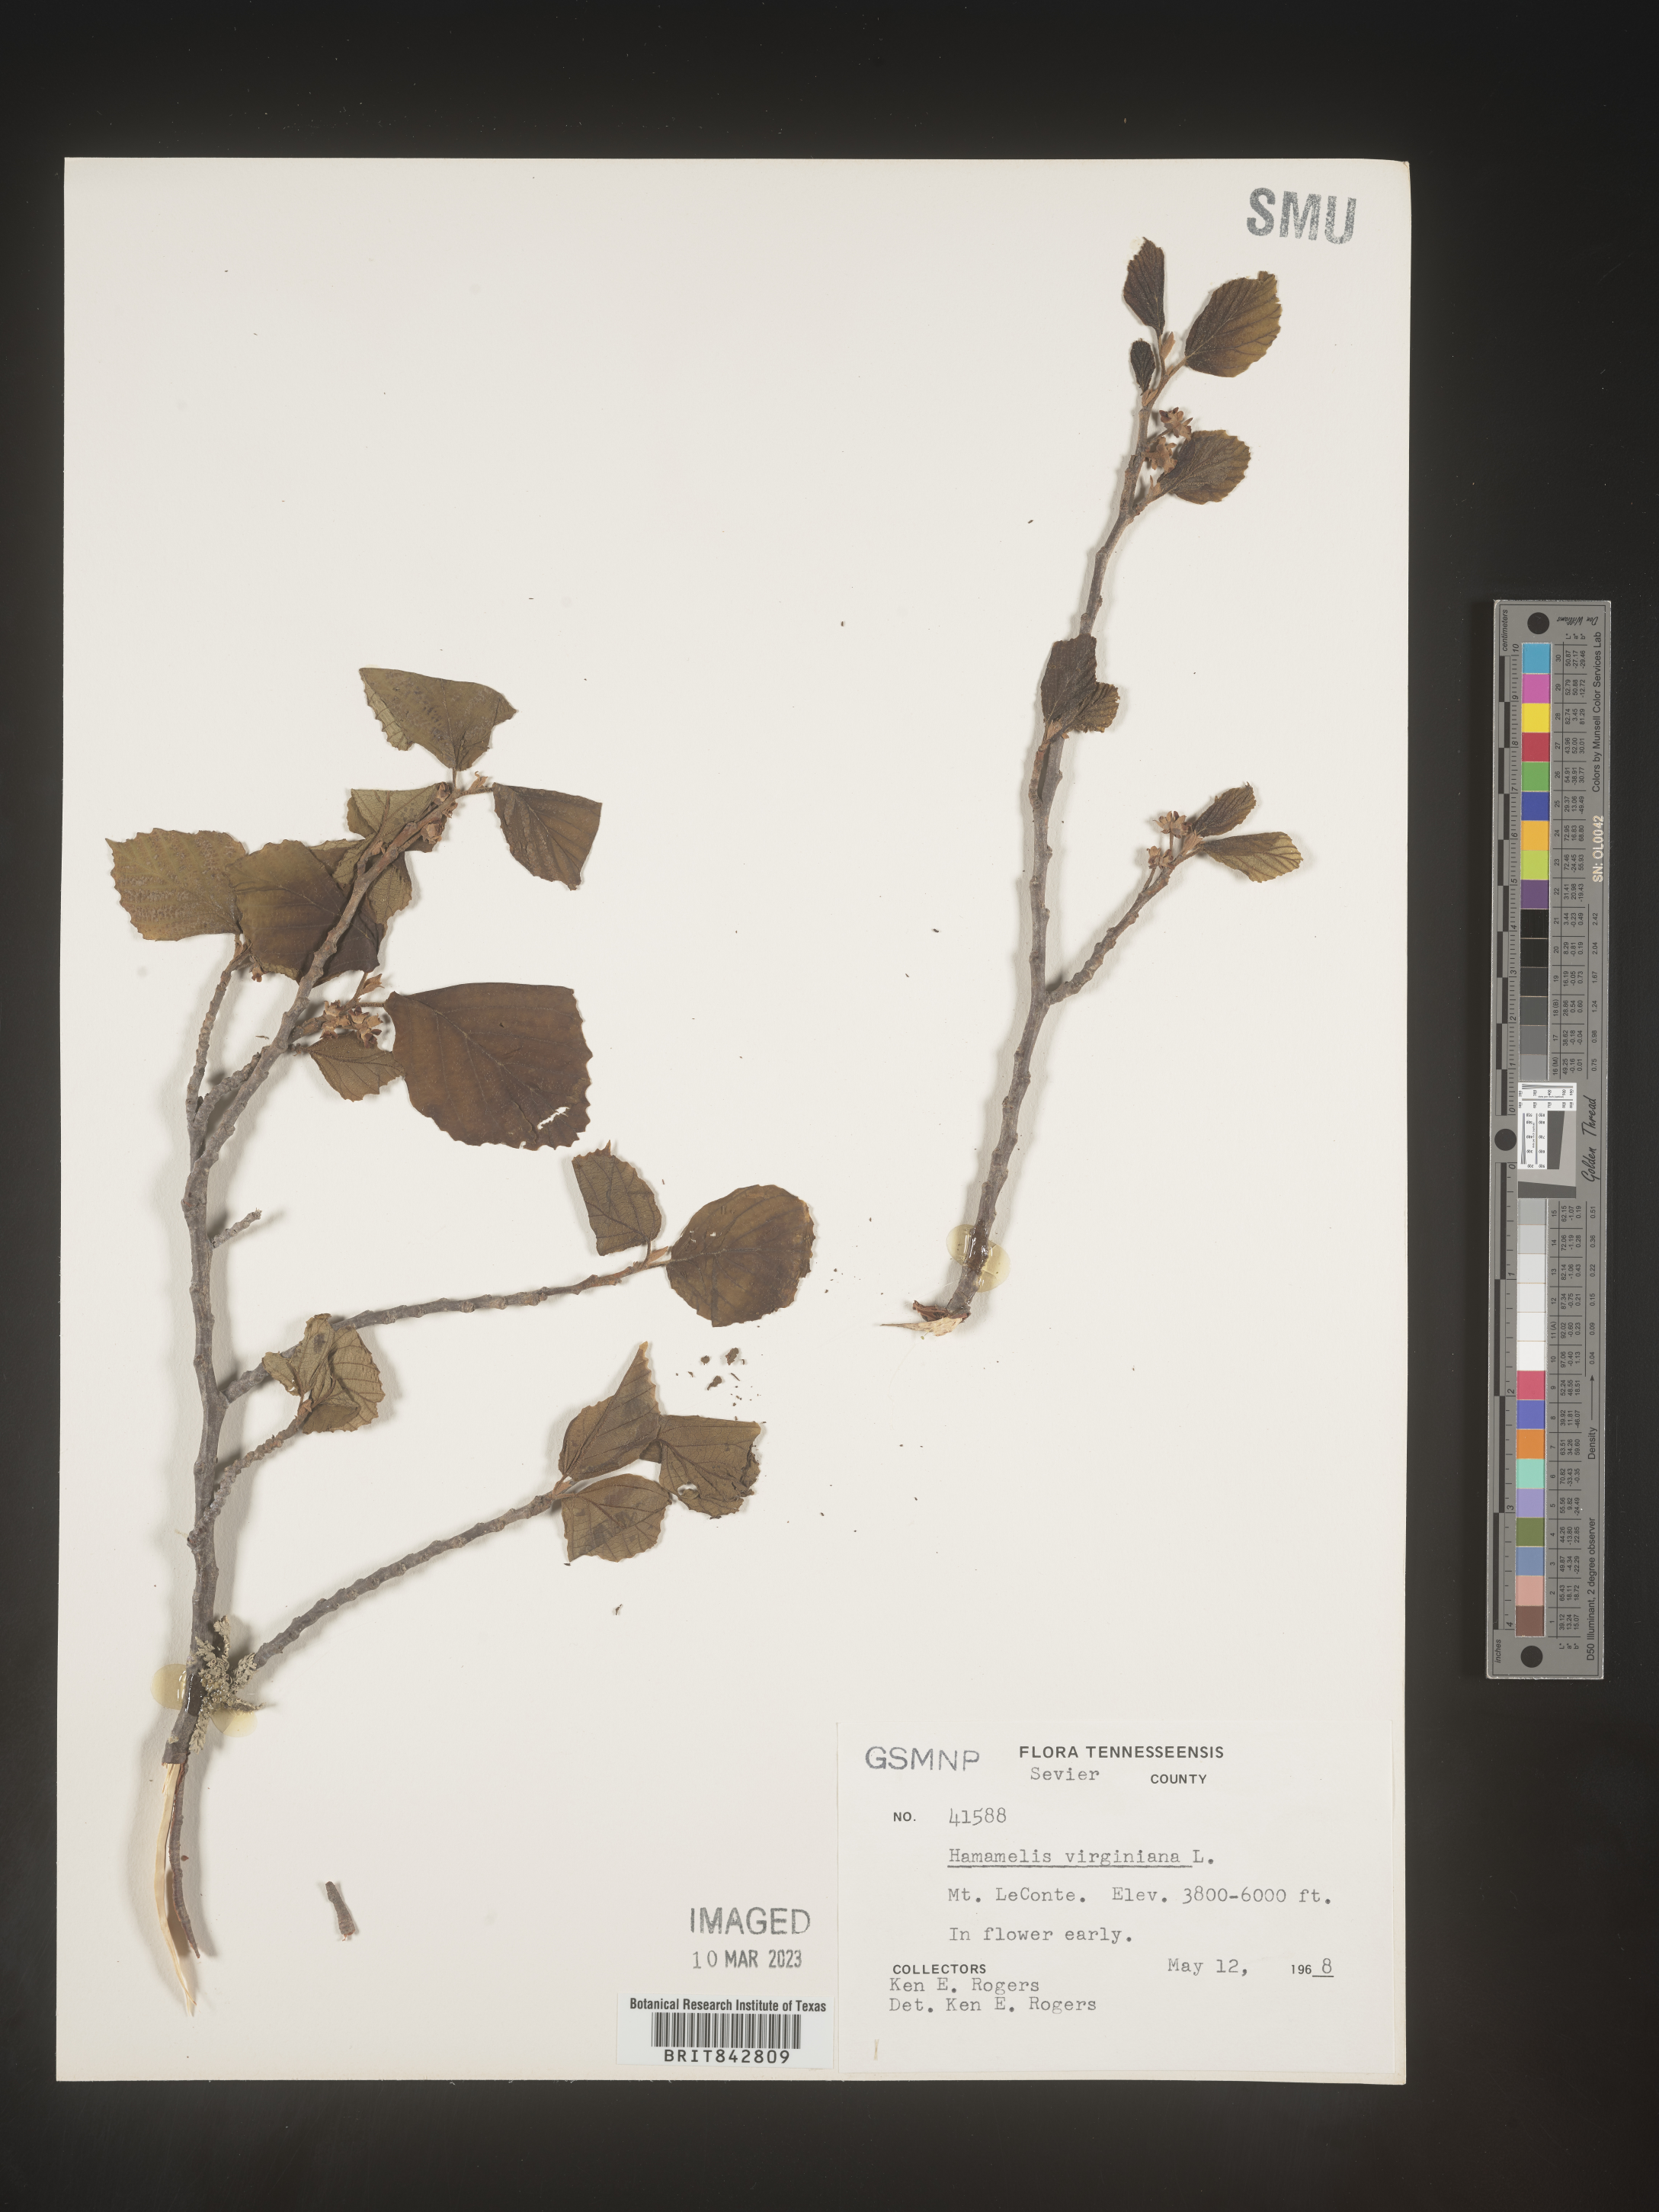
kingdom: Plantae
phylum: Tracheophyta
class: Magnoliopsida
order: Saxifragales
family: Hamamelidaceae
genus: Hamamelis
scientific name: Hamamelis virginiana
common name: Witch-hazel
